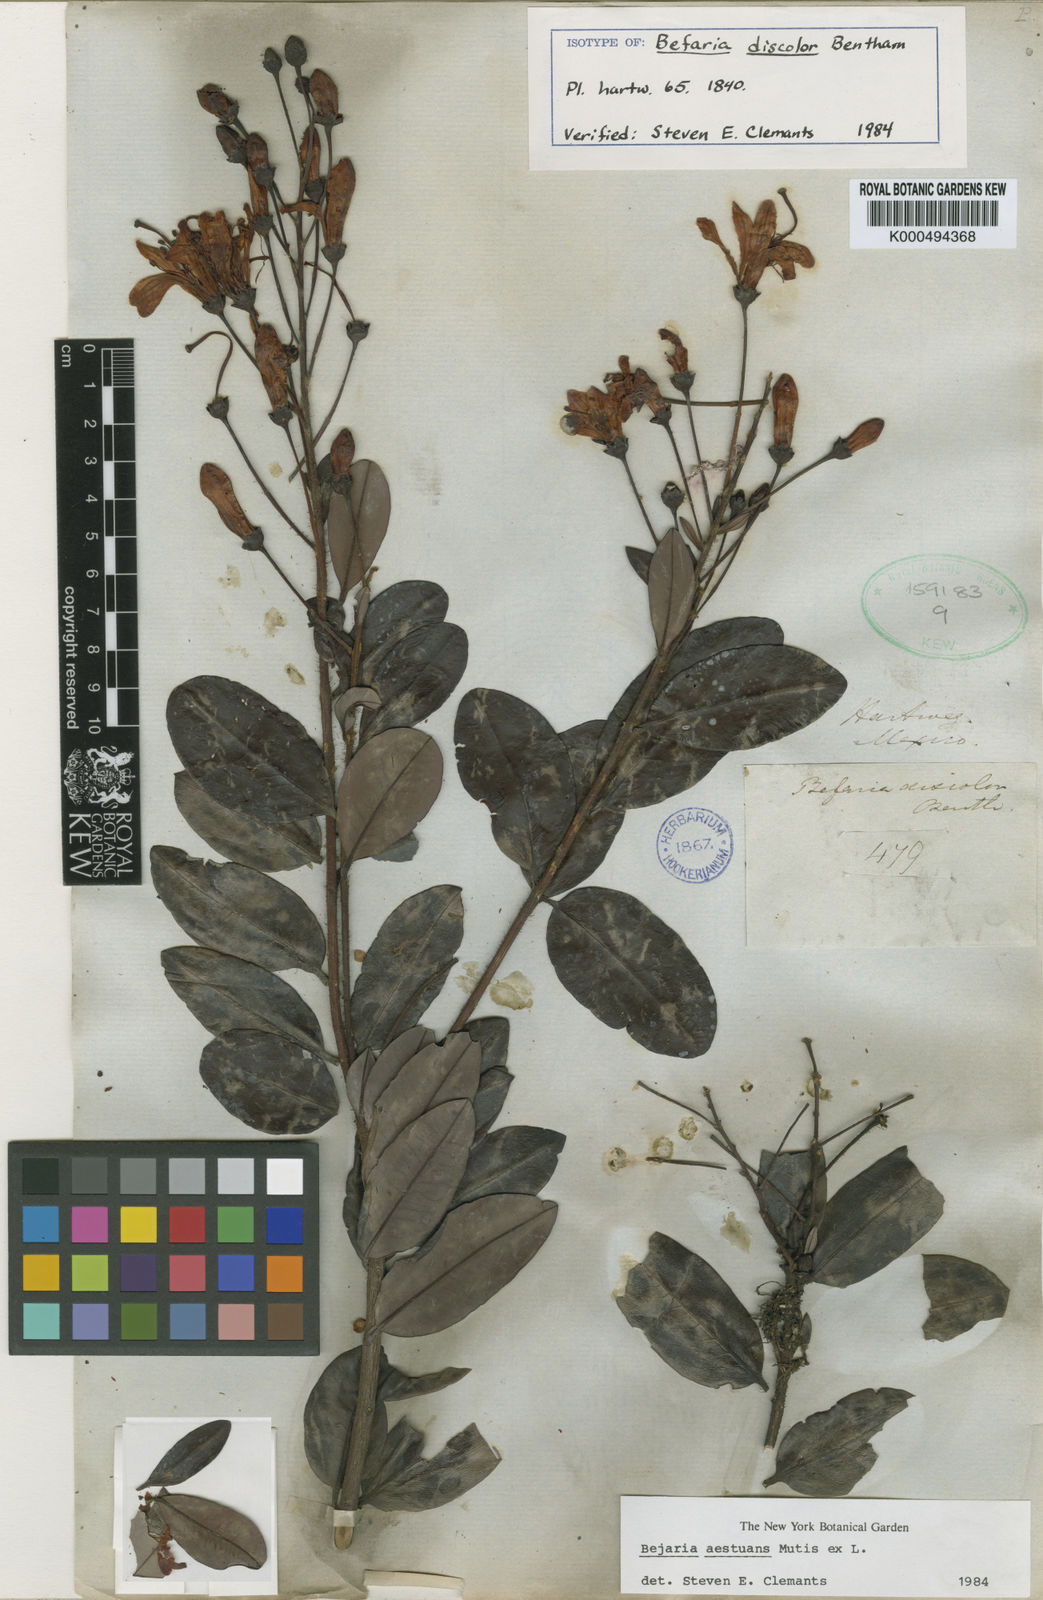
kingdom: Plantae
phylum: Tracheophyta
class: Magnoliopsida
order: Ericales
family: Ericaceae
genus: Bejaria
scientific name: Bejaria
